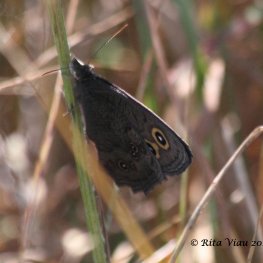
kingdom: Animalia
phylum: Arthropoda
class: Insecta
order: Lepidoptera
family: Nymphalidae
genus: Cercyonis
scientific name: Cercyonis pegala
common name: Common Wood-Nymph
